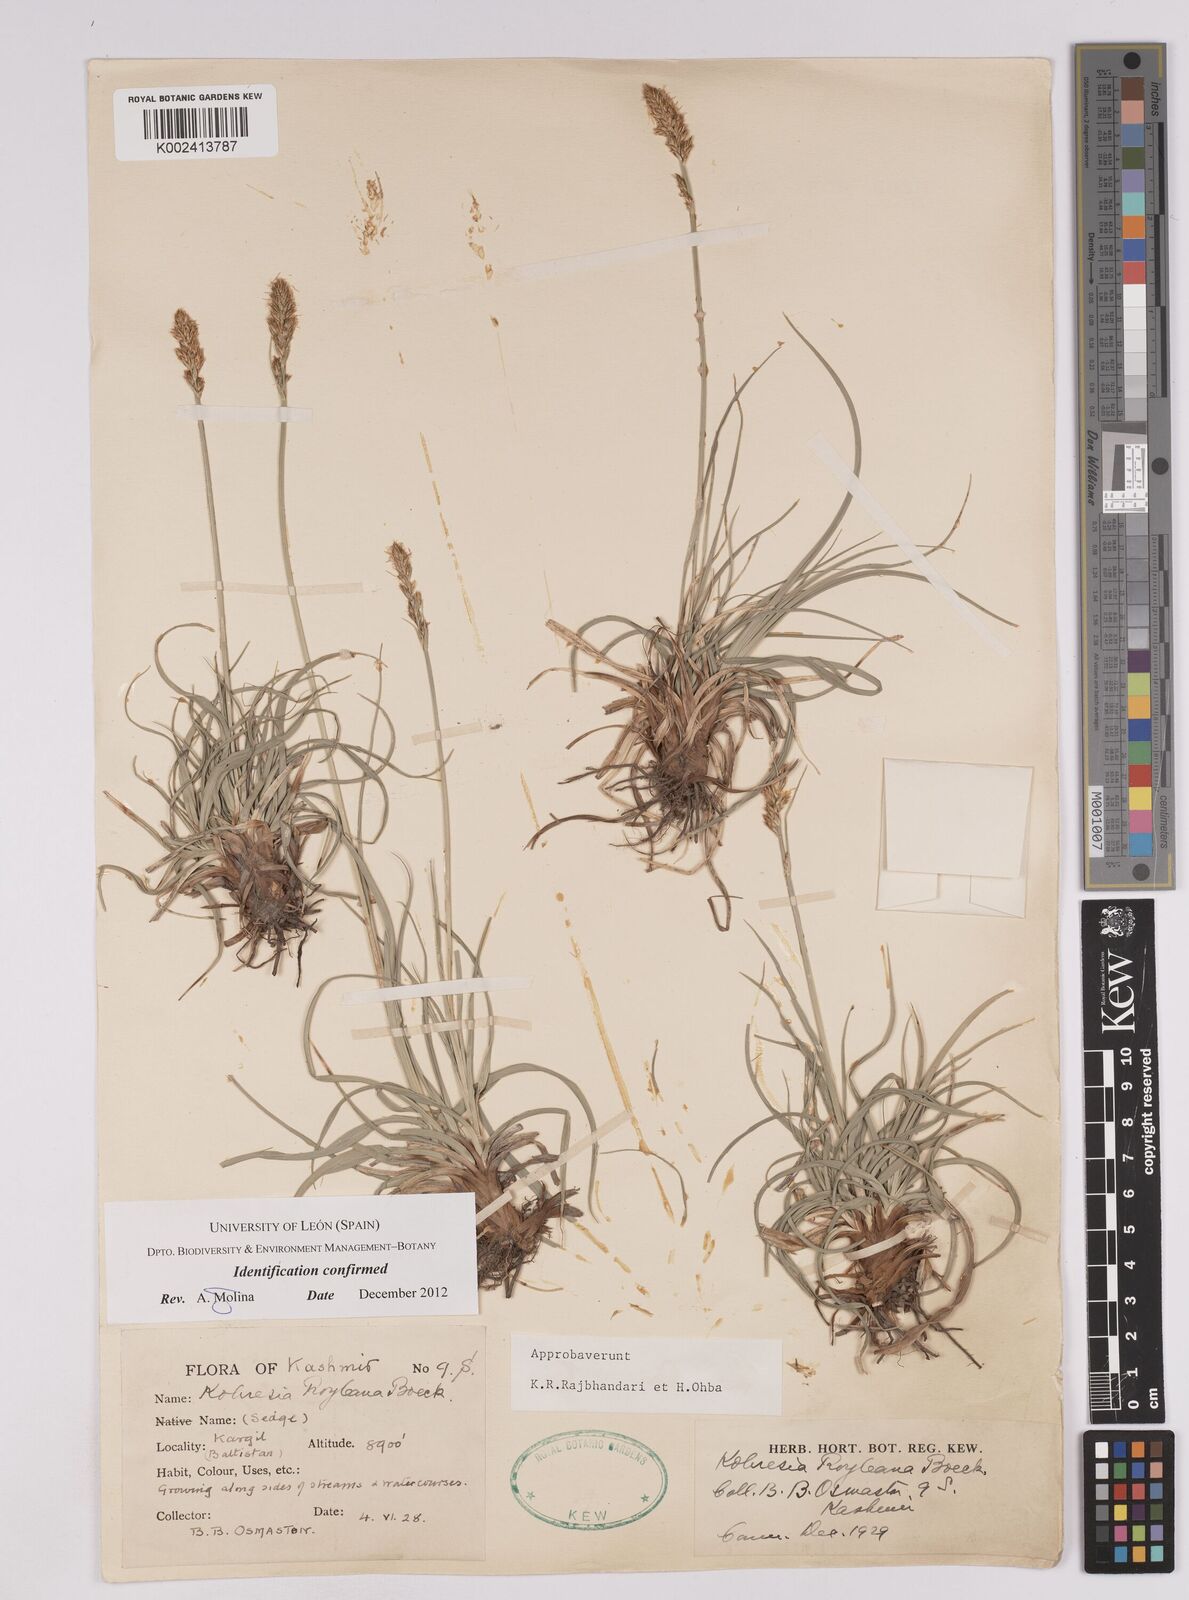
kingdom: Plantae
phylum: Tracheophyta
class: Liliopsida
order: Poales
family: Cyperaceae
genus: Carex
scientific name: Carex kokanica
